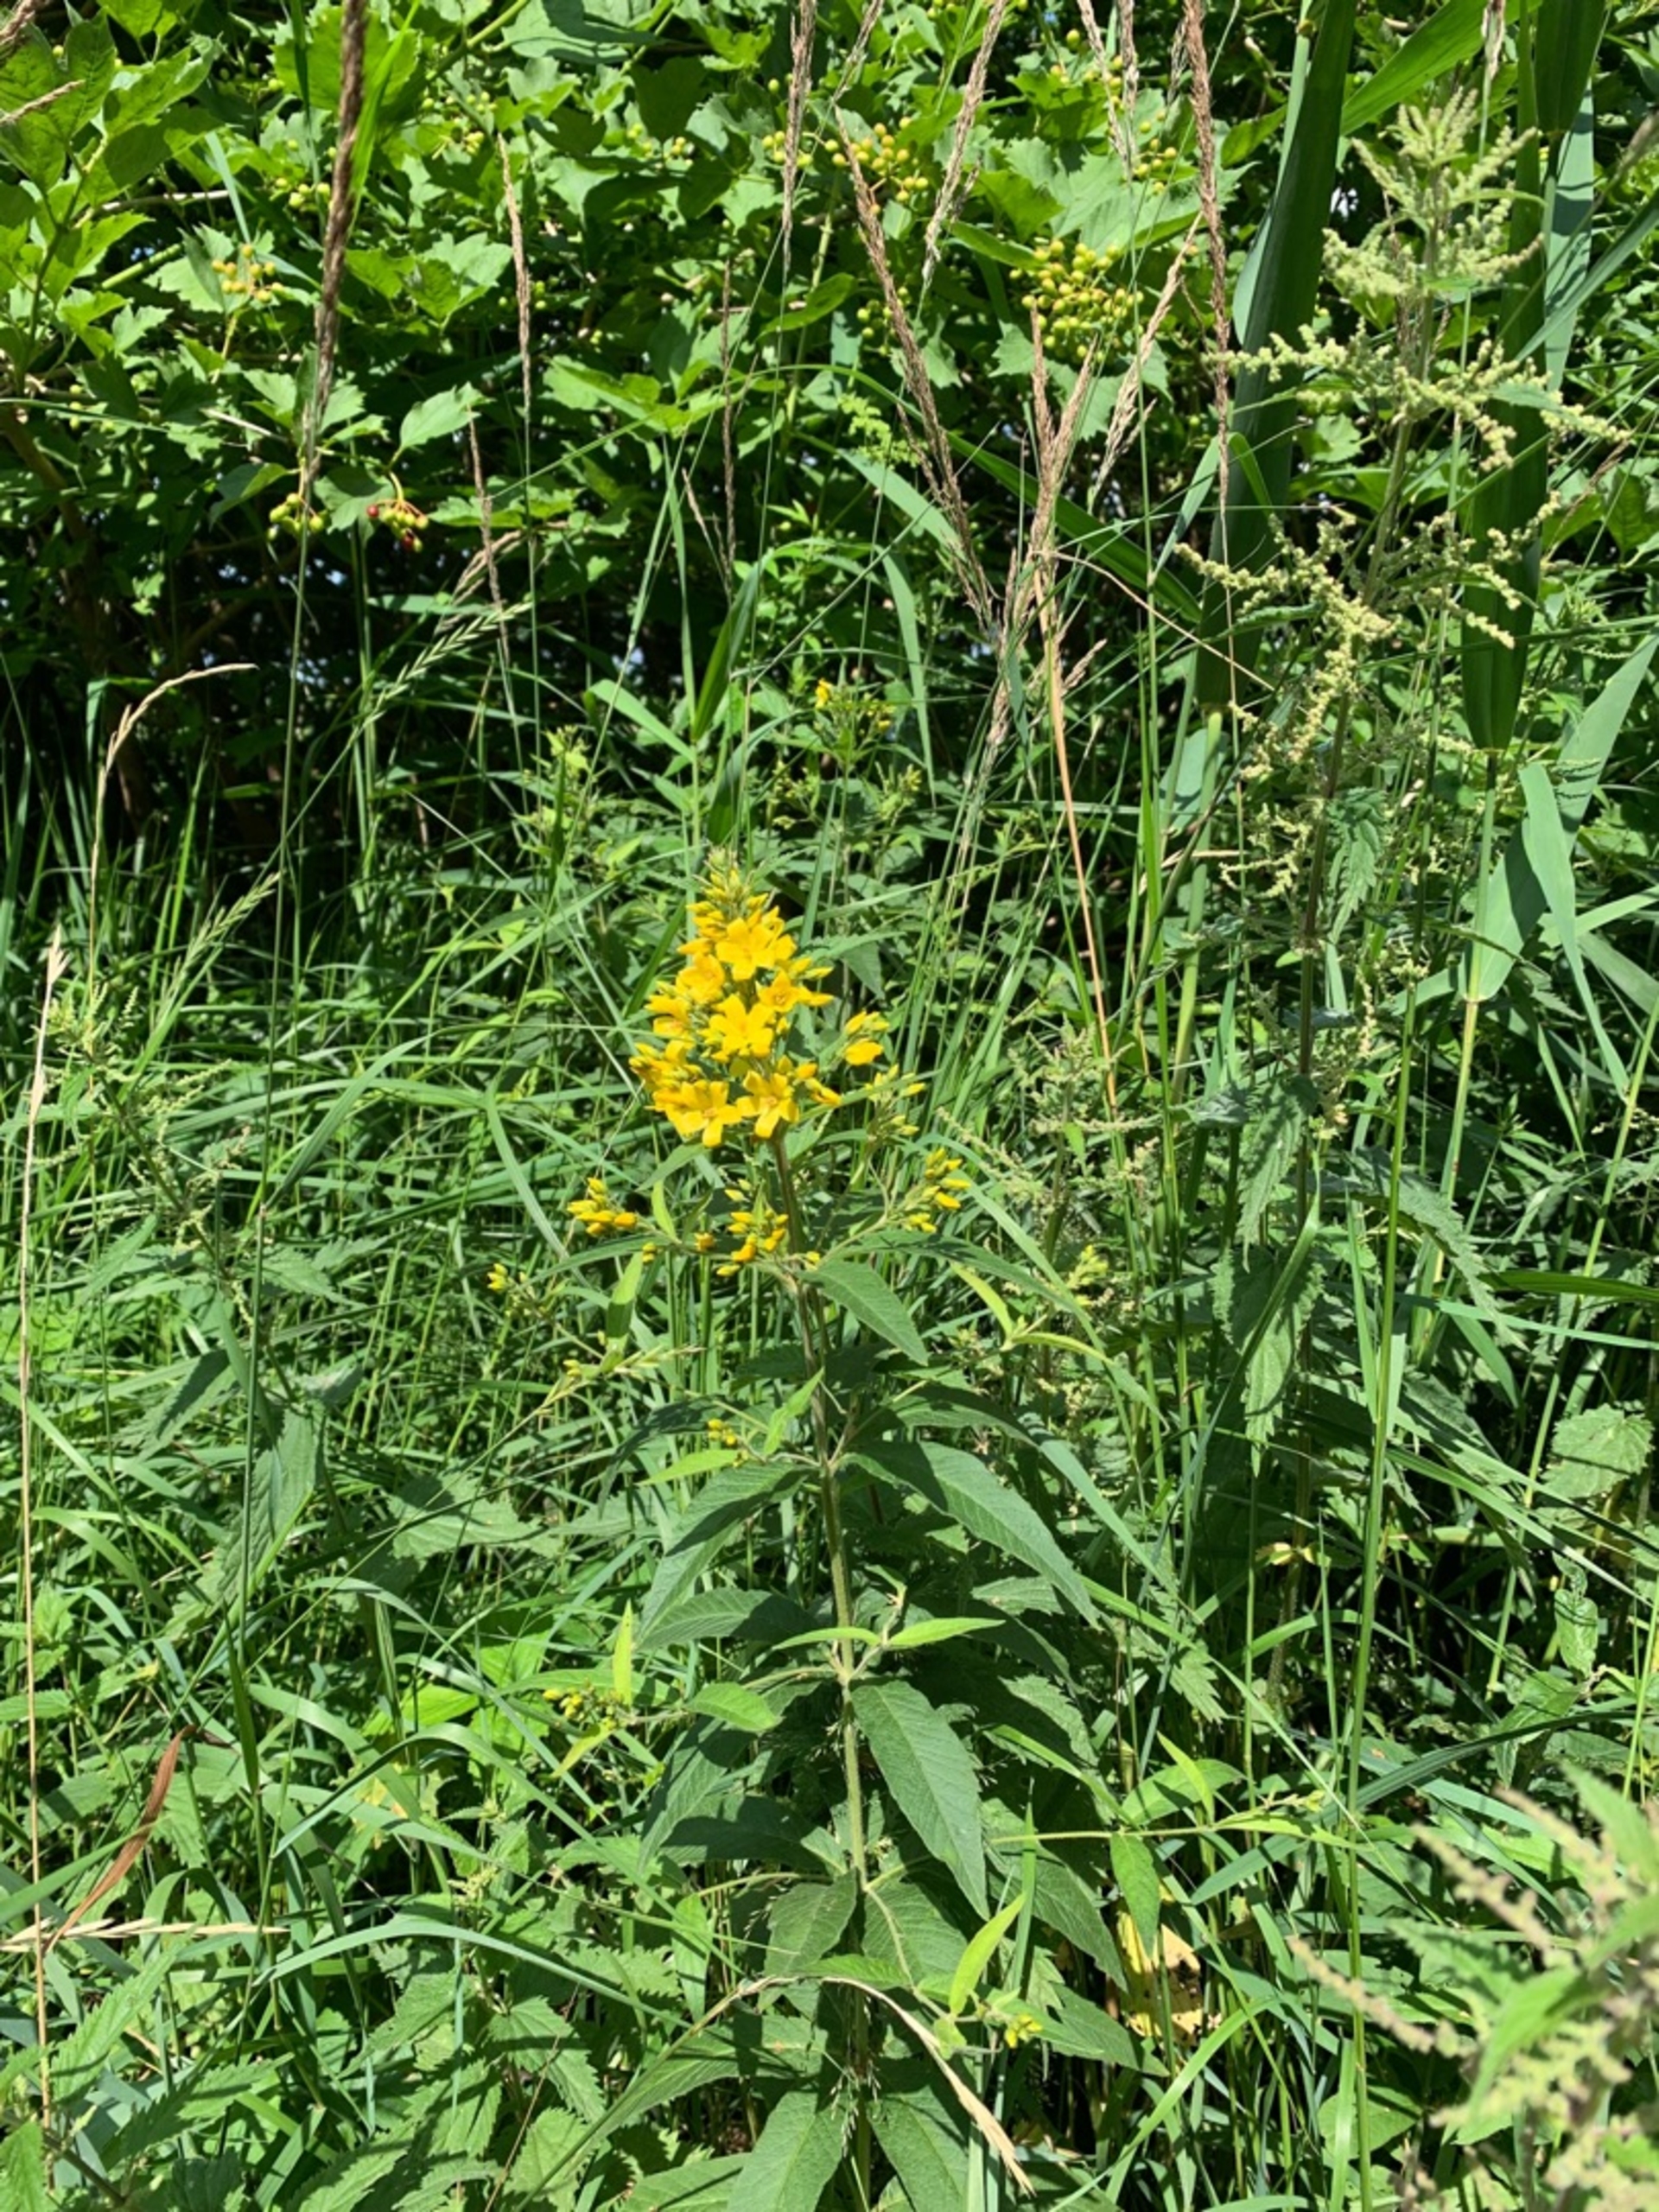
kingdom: Plantae
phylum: Tracheophyta
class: Magnoliopsida
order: Ericales
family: Primulaceae
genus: Lysimachia
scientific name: Lysimachia vulgaris
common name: Almindelig fredløs
